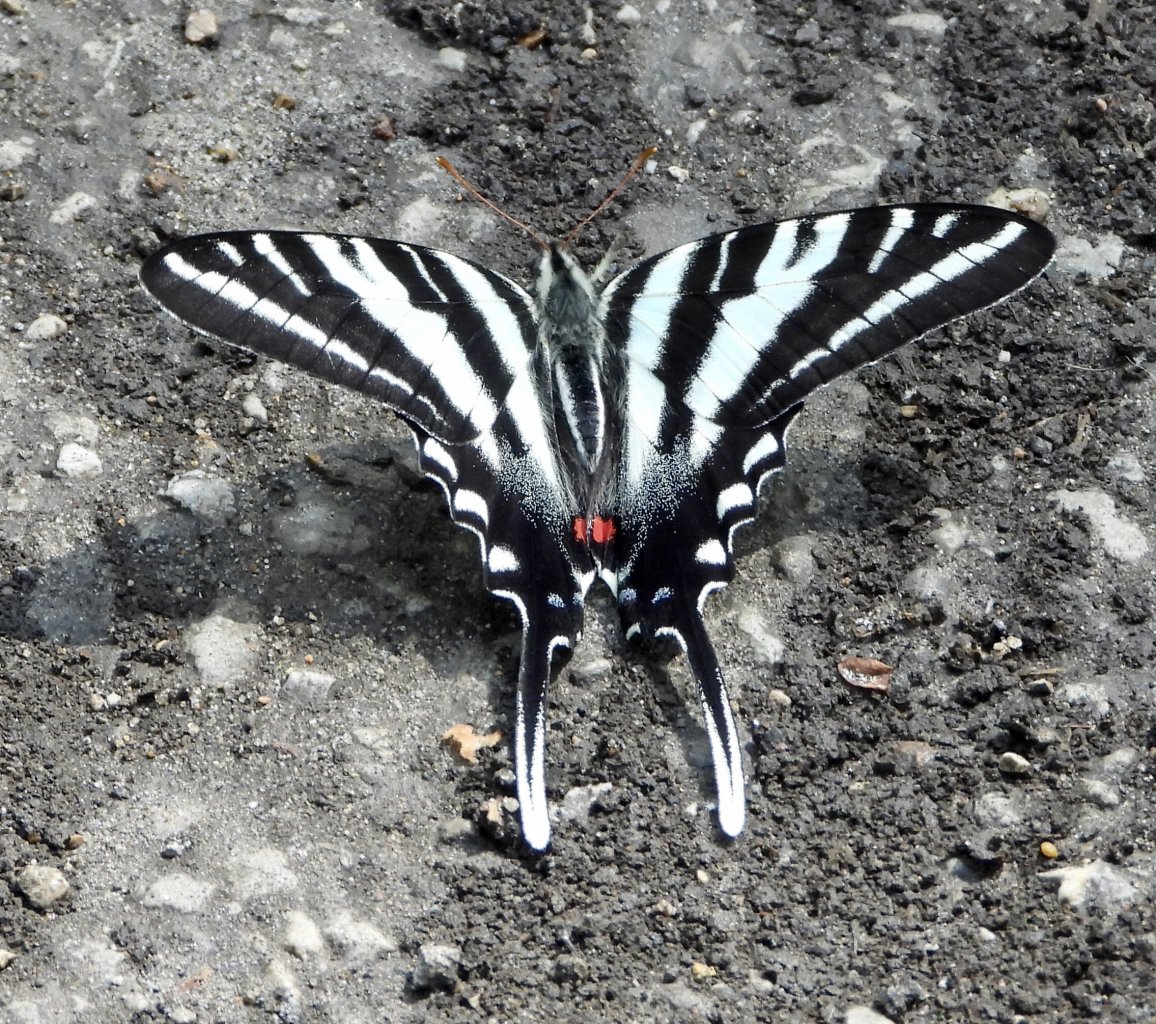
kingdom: Animalia
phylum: Arthropoda
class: Insecta
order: Lepidoptera
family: Papilionidae
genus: Protographium
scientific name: Protographium marcellus
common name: Zebra Swallowtail
